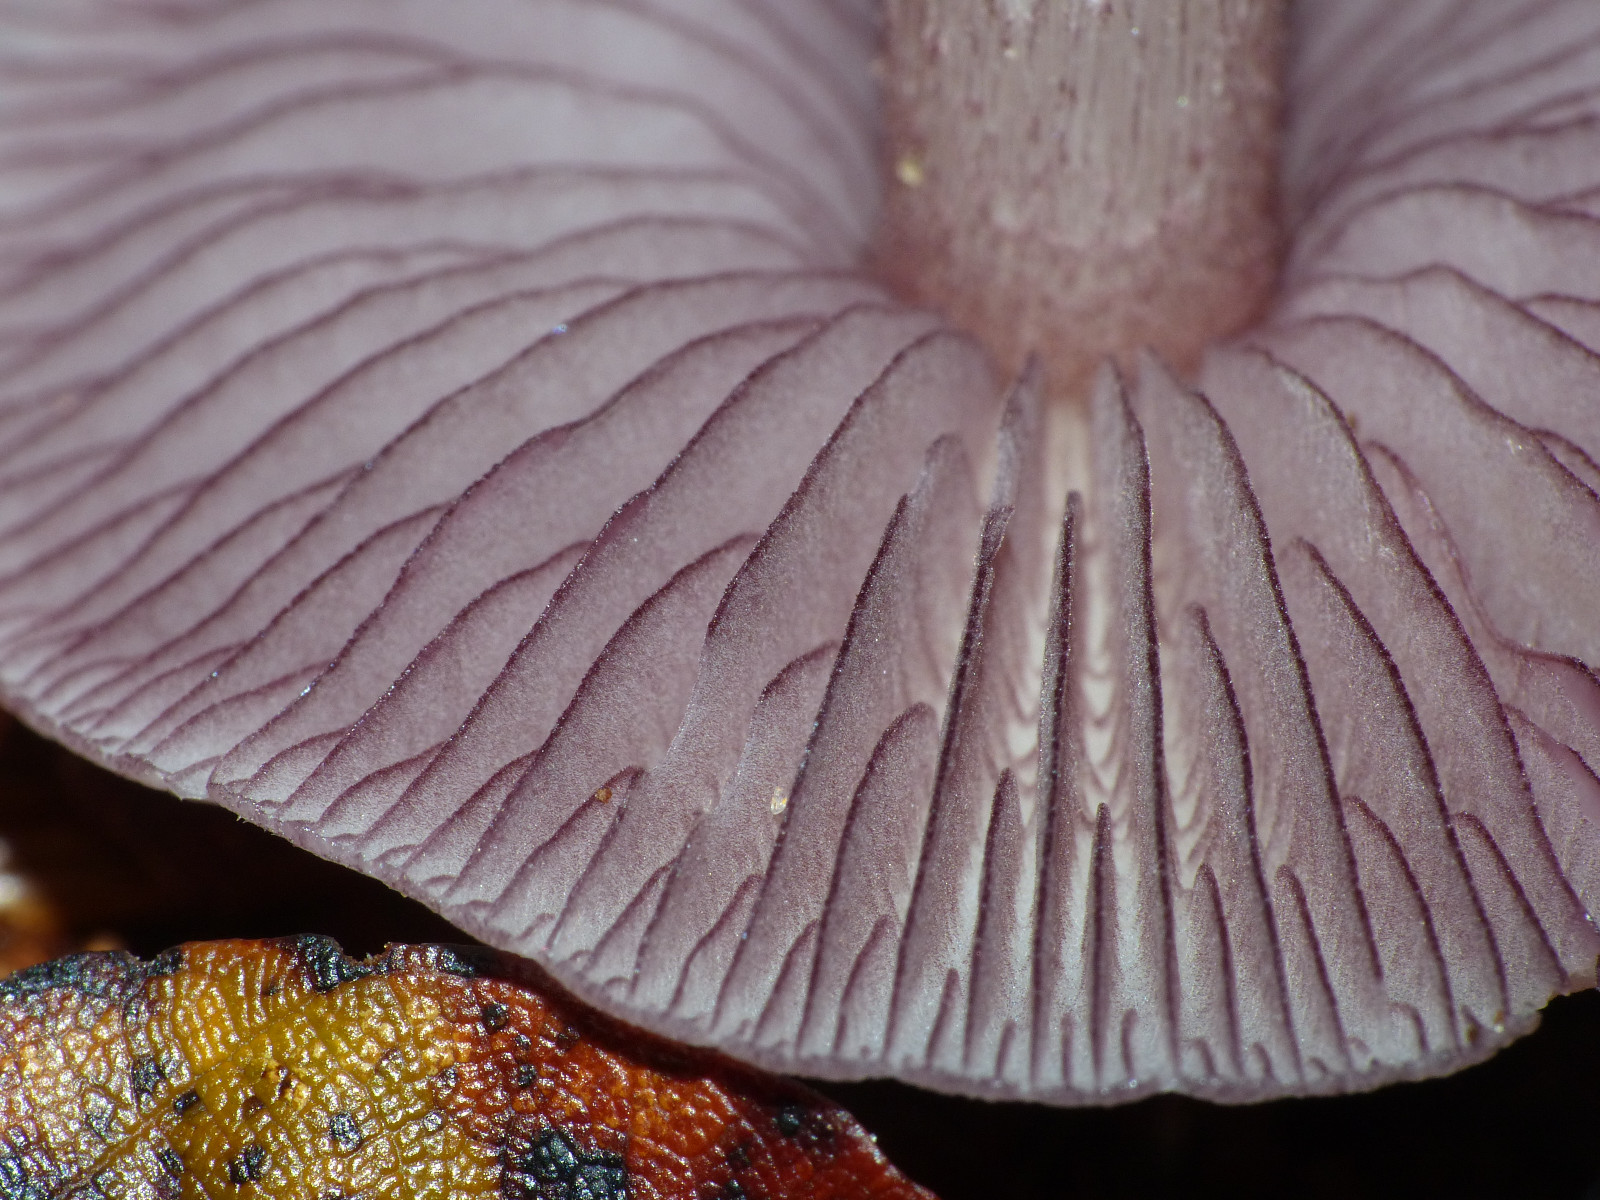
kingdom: Fungi
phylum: Basidiomycota
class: Agaricomycetes
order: Agaricales
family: Mycenaceae
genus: Mycena
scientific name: Mycena pelianthina
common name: mørkbladet huesvamp
